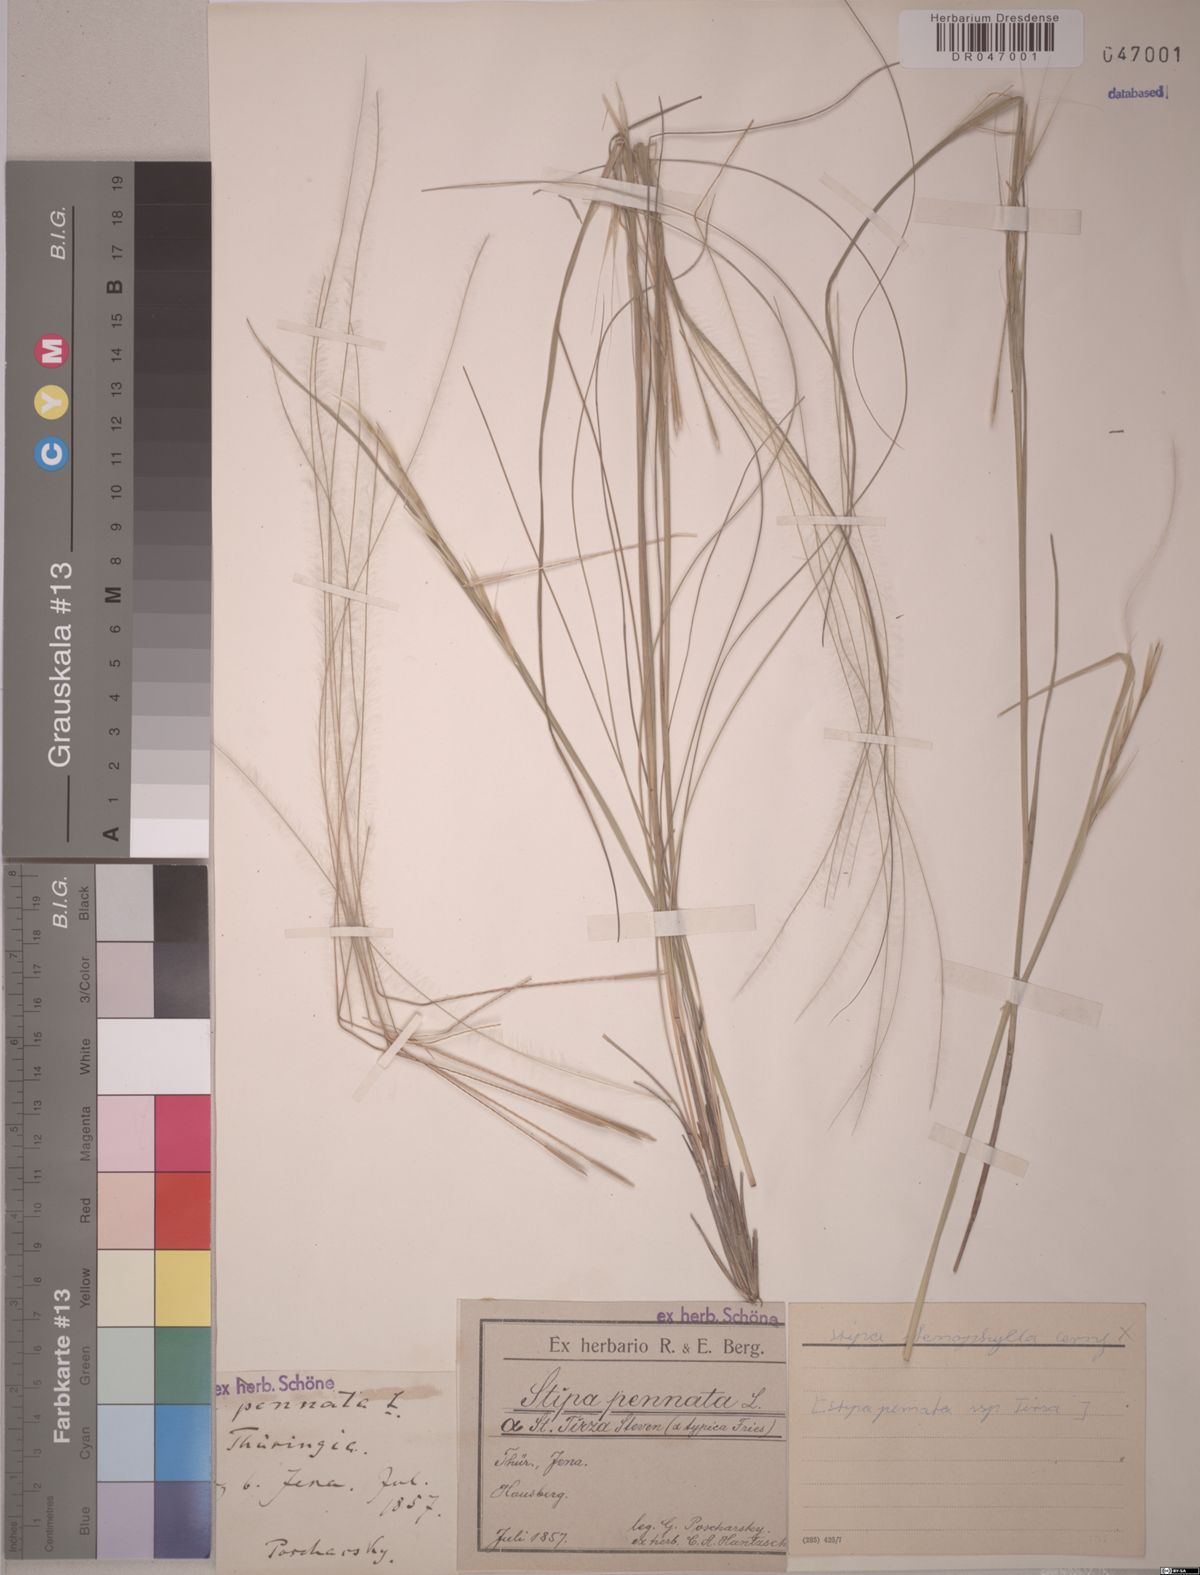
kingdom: Plantae
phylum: Tracheophyta
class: Liliopsida
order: Poales
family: Poaceae
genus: Stipa
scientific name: Stipa tirsa
